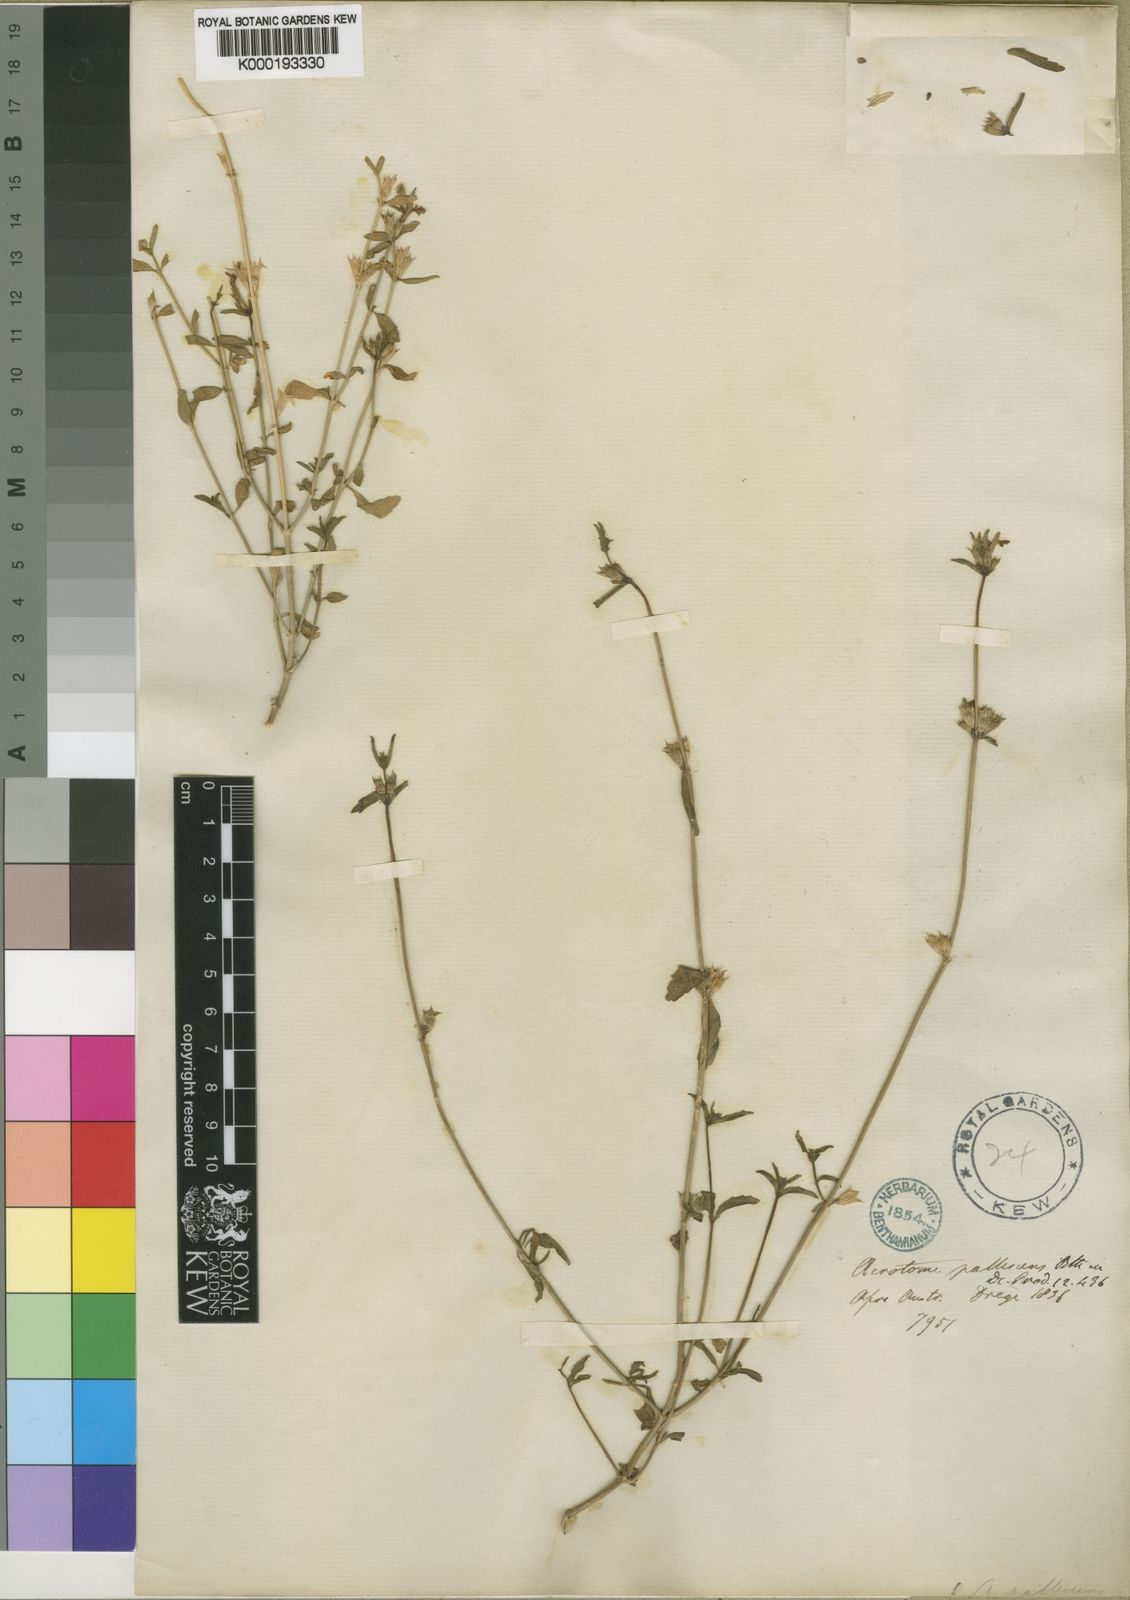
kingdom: Plantae
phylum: Tracheophyta
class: Magnoliopsida
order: Lamiales
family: Lamiaceae
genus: Acrotome
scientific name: Acrotome pallescens
